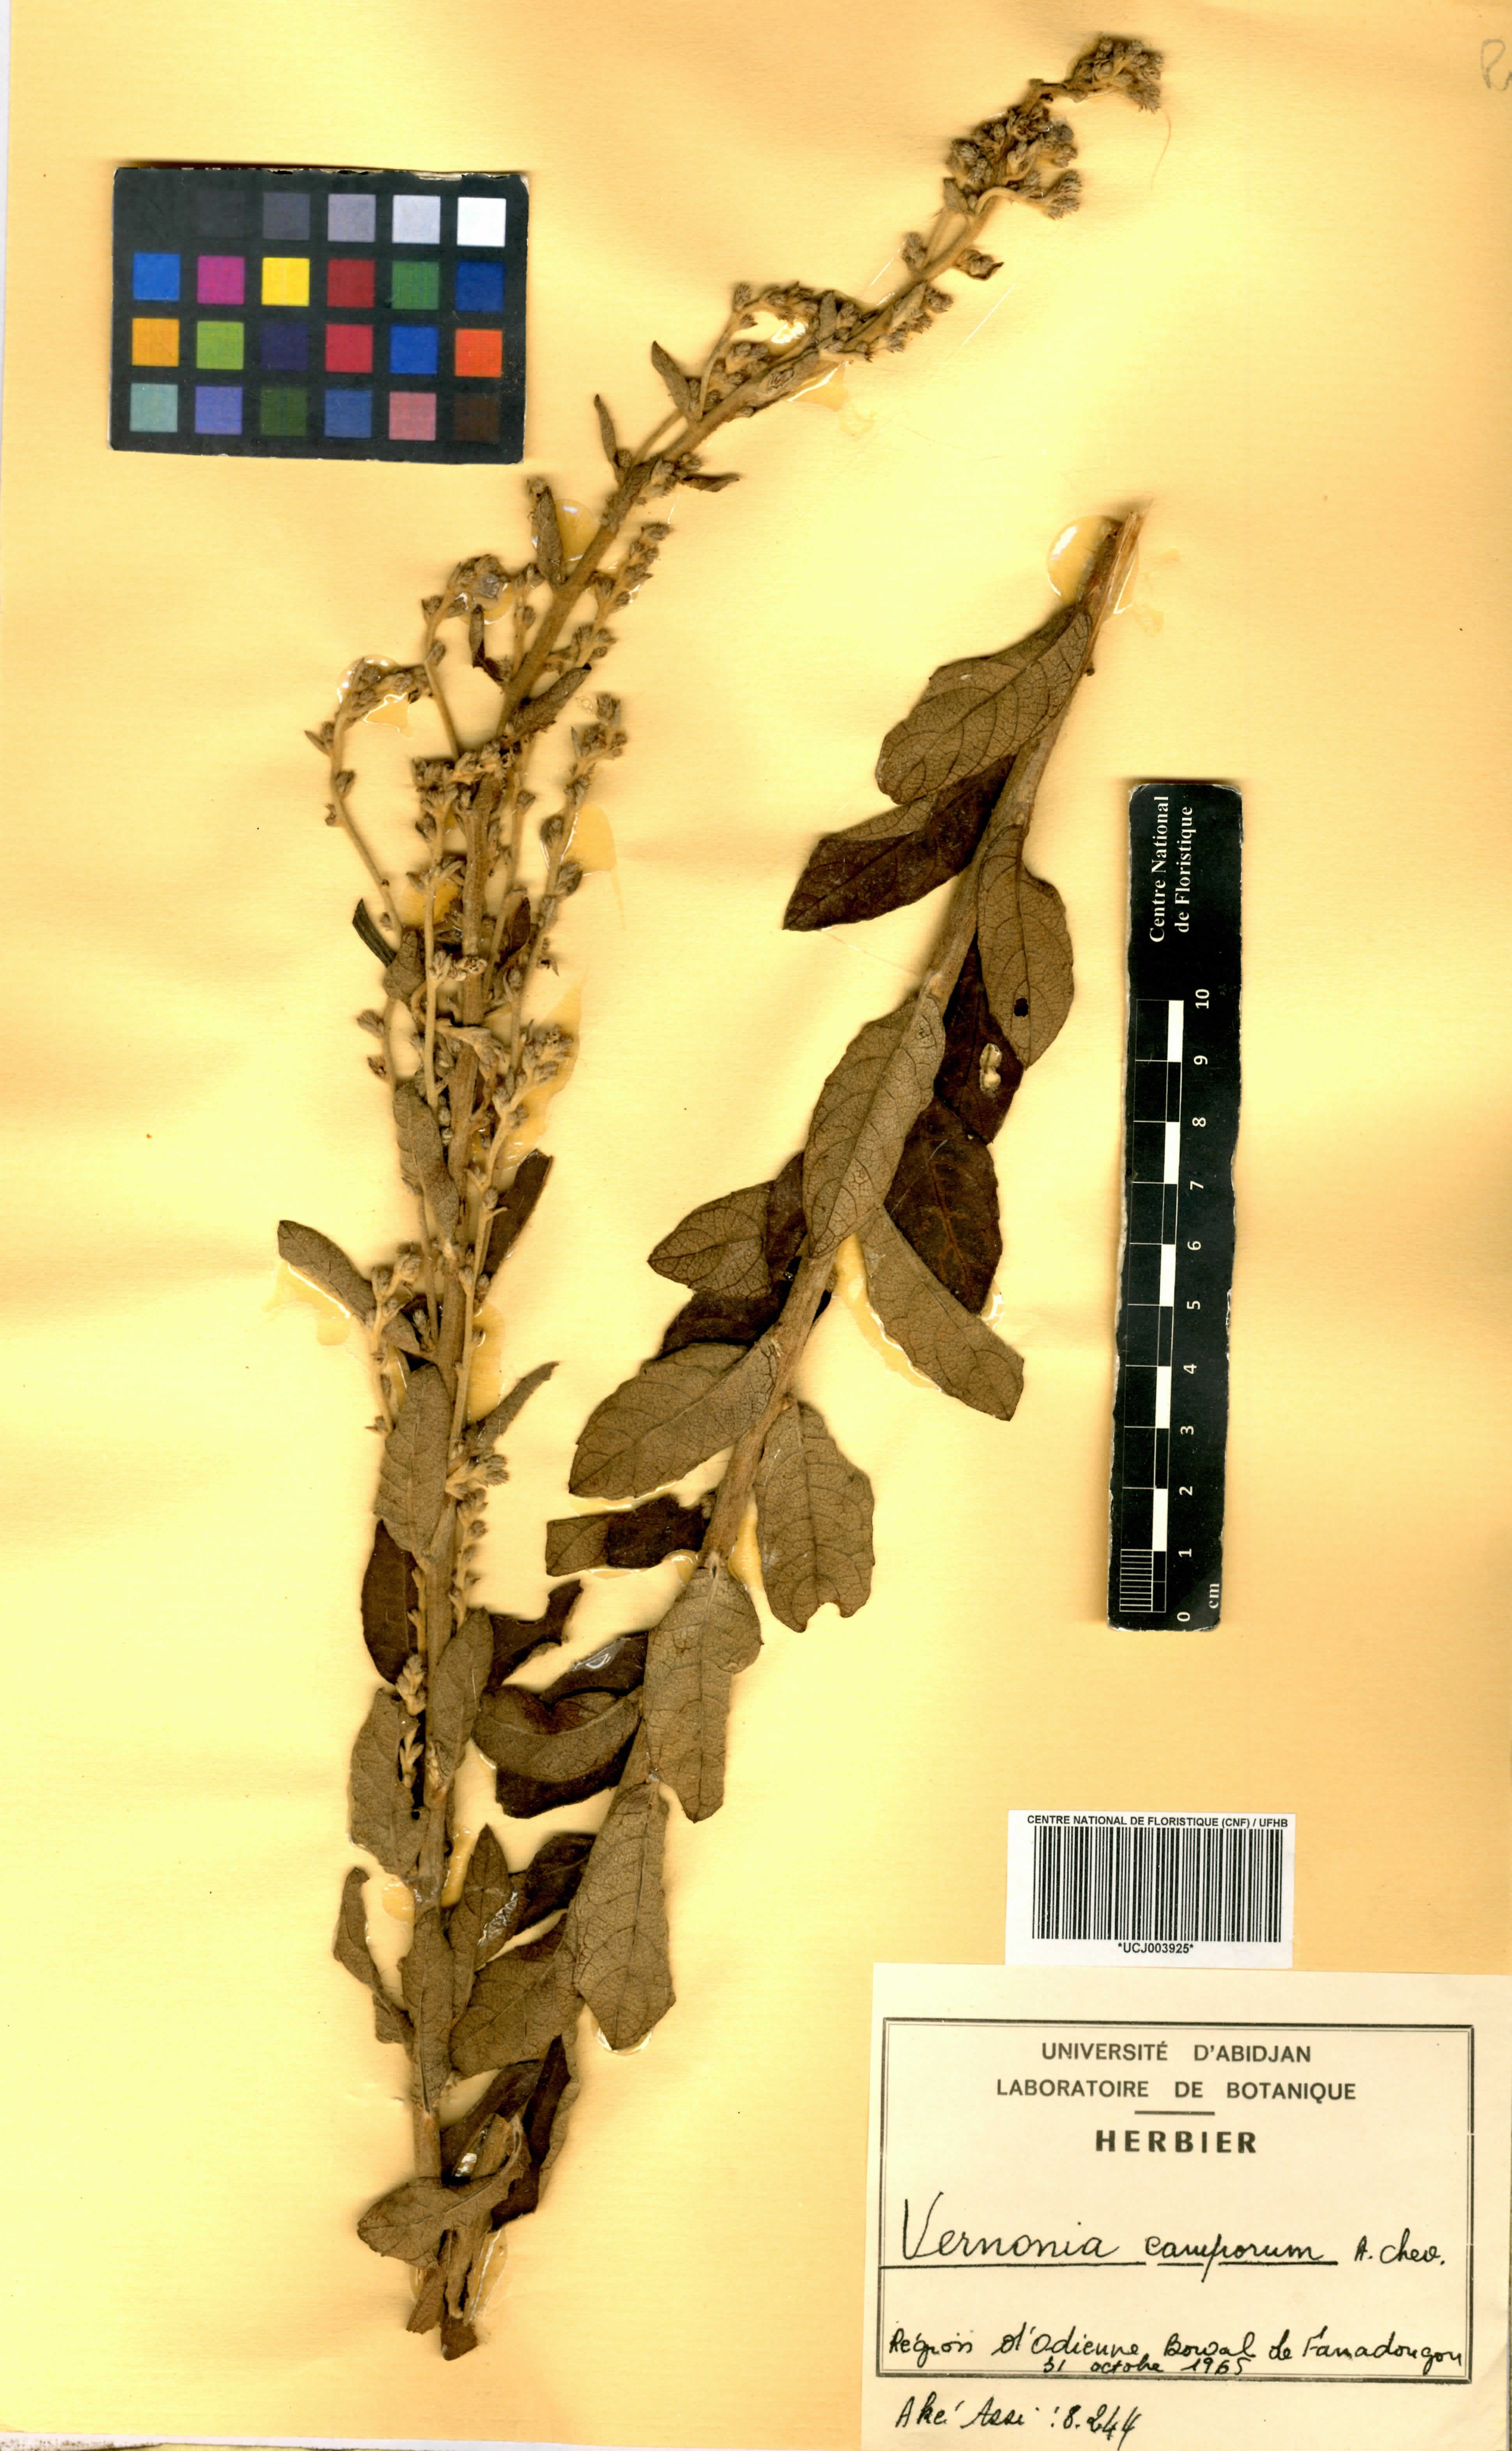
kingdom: Plantae
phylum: Tracheophyta
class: Magnoliopsida
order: Asterales
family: Asteraceae
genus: Vernoniastrum
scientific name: Vernoniastrum camporum
